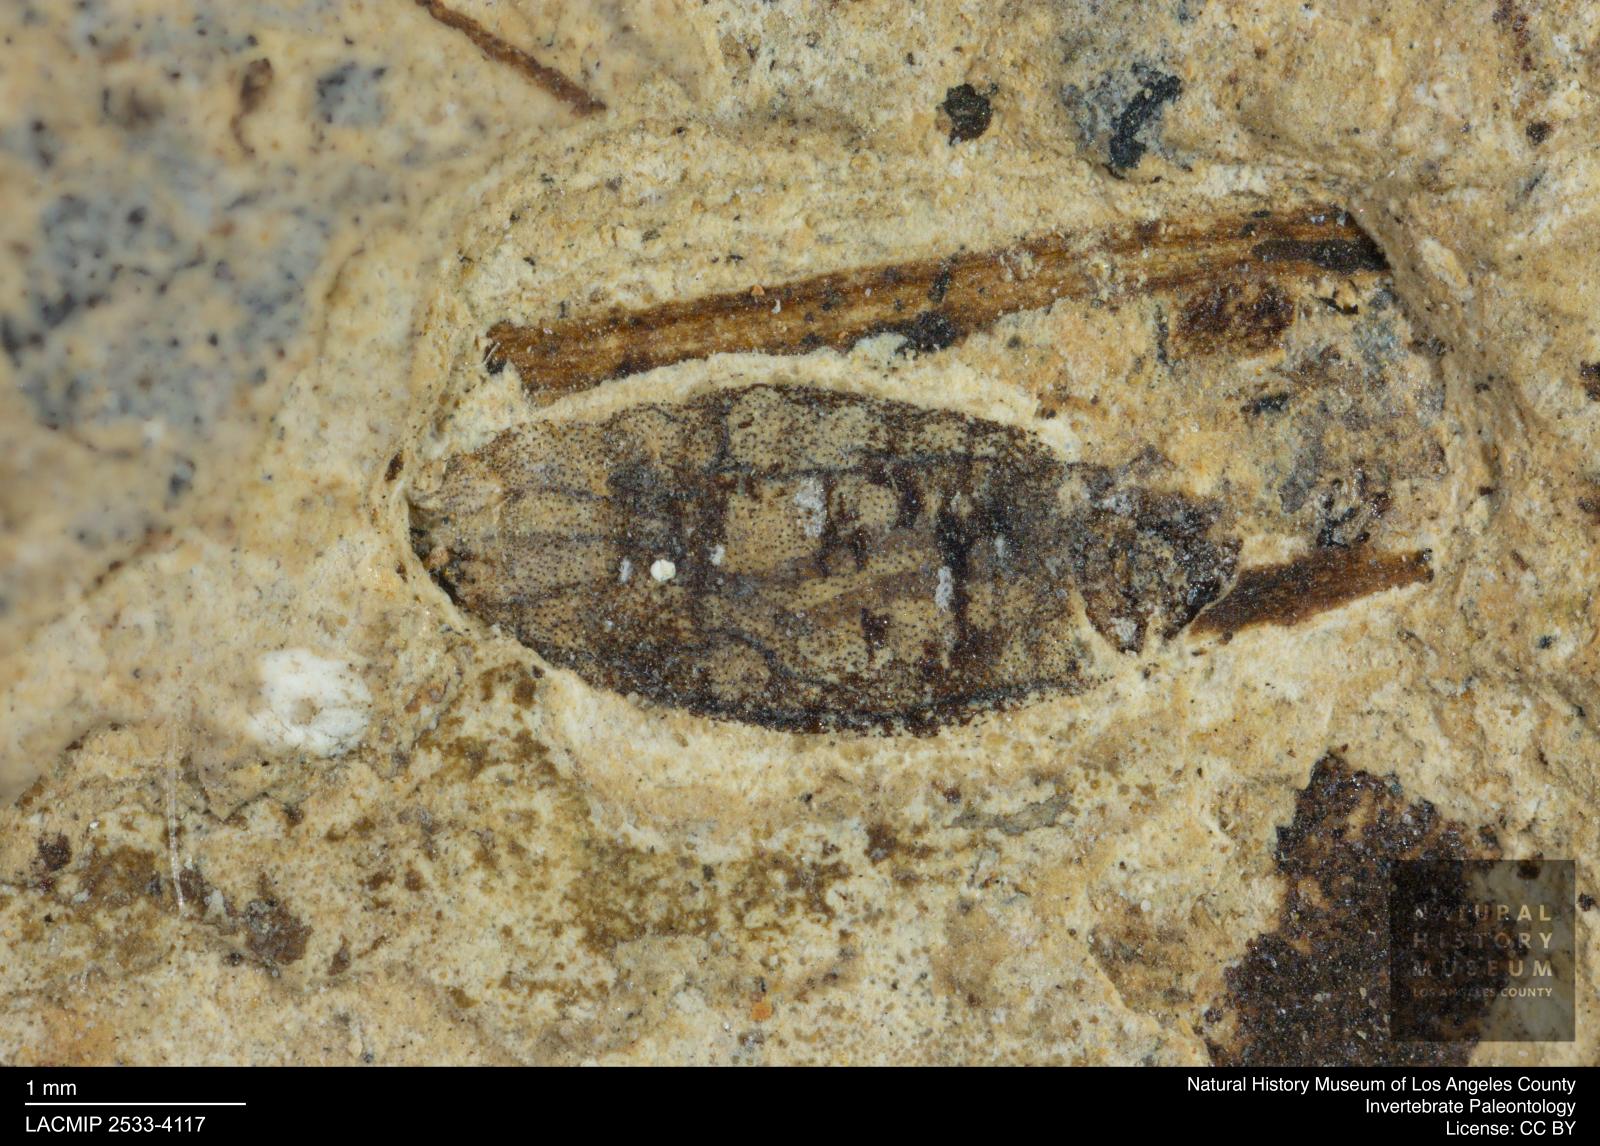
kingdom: Animalia
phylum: Arthropoda
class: Insecta
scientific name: Insecta
